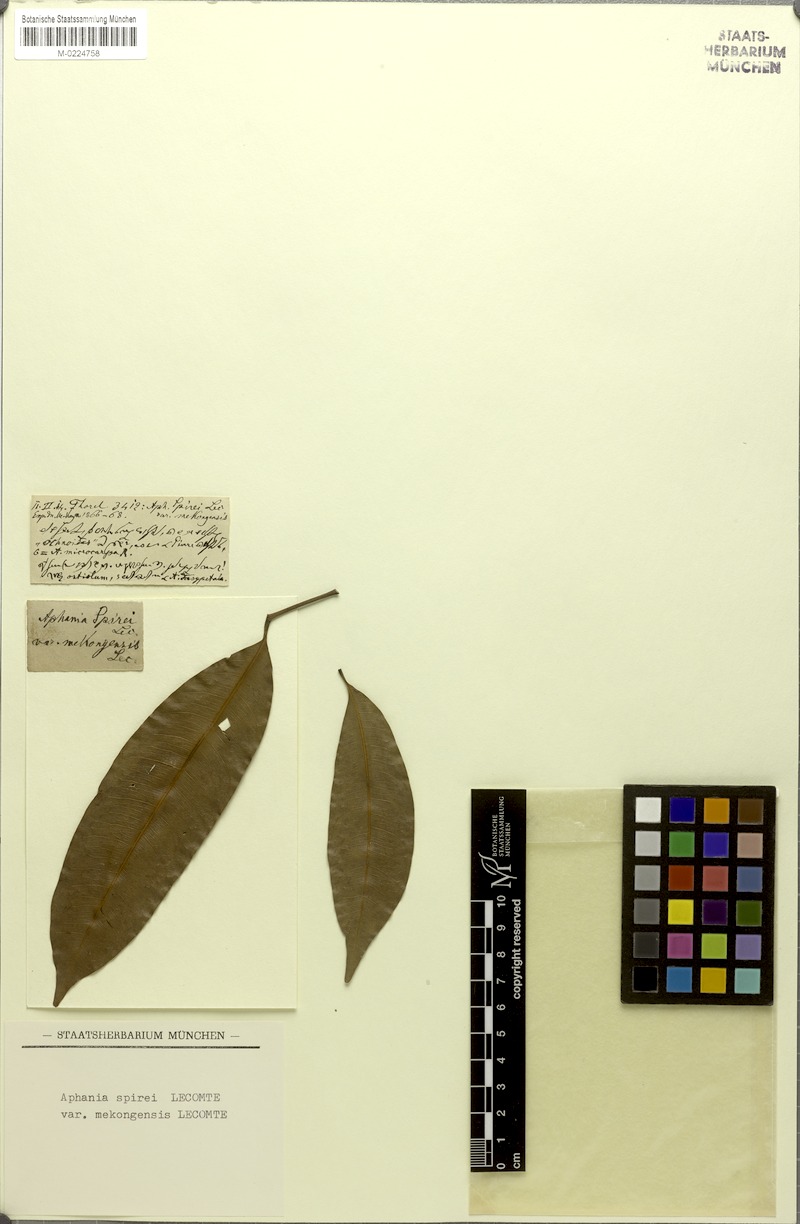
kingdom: Plantae
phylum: Tracheophyta
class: Magnoliopsida
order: Sapindales
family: Sapindaceae
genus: Lepisanthes
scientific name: Lepisanthes senegalensis
